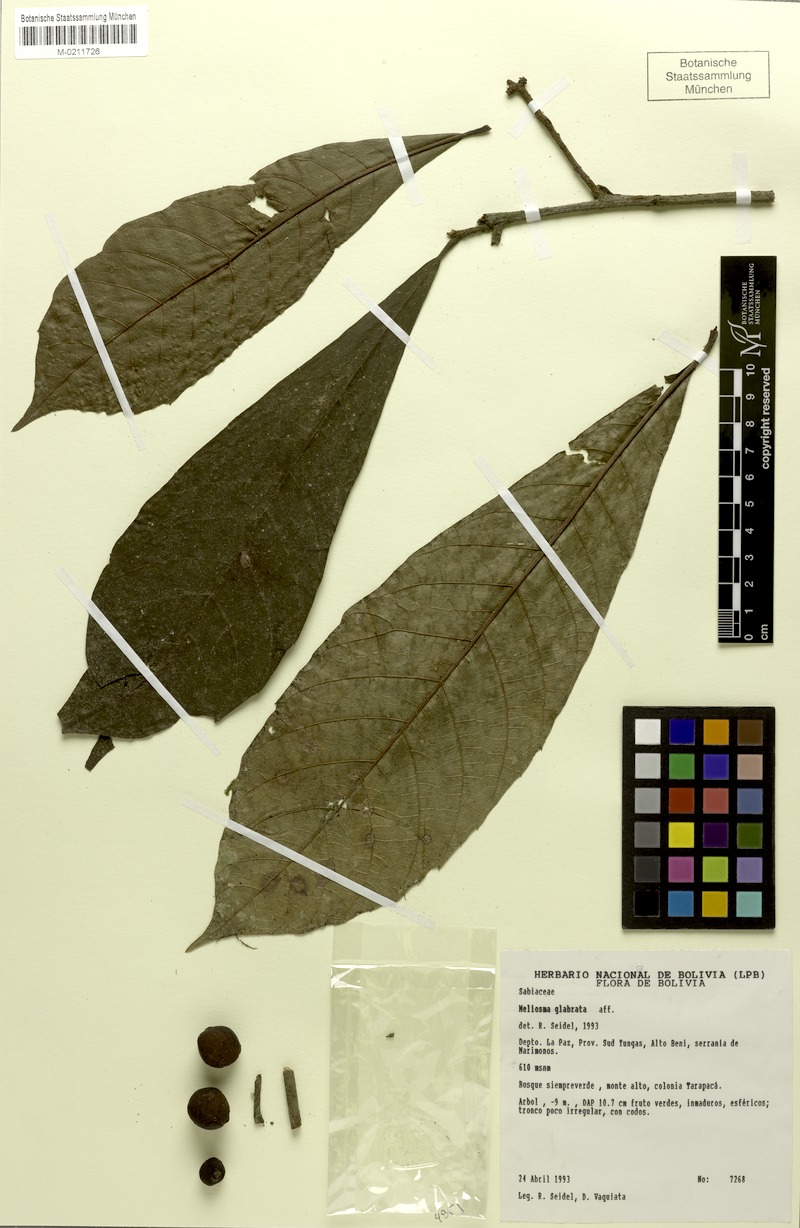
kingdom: Plantae
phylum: Tracheophyta
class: Magnoliopsida
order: Proteales
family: Sabiaceae
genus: Meliosma
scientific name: Meliosma glabrata
